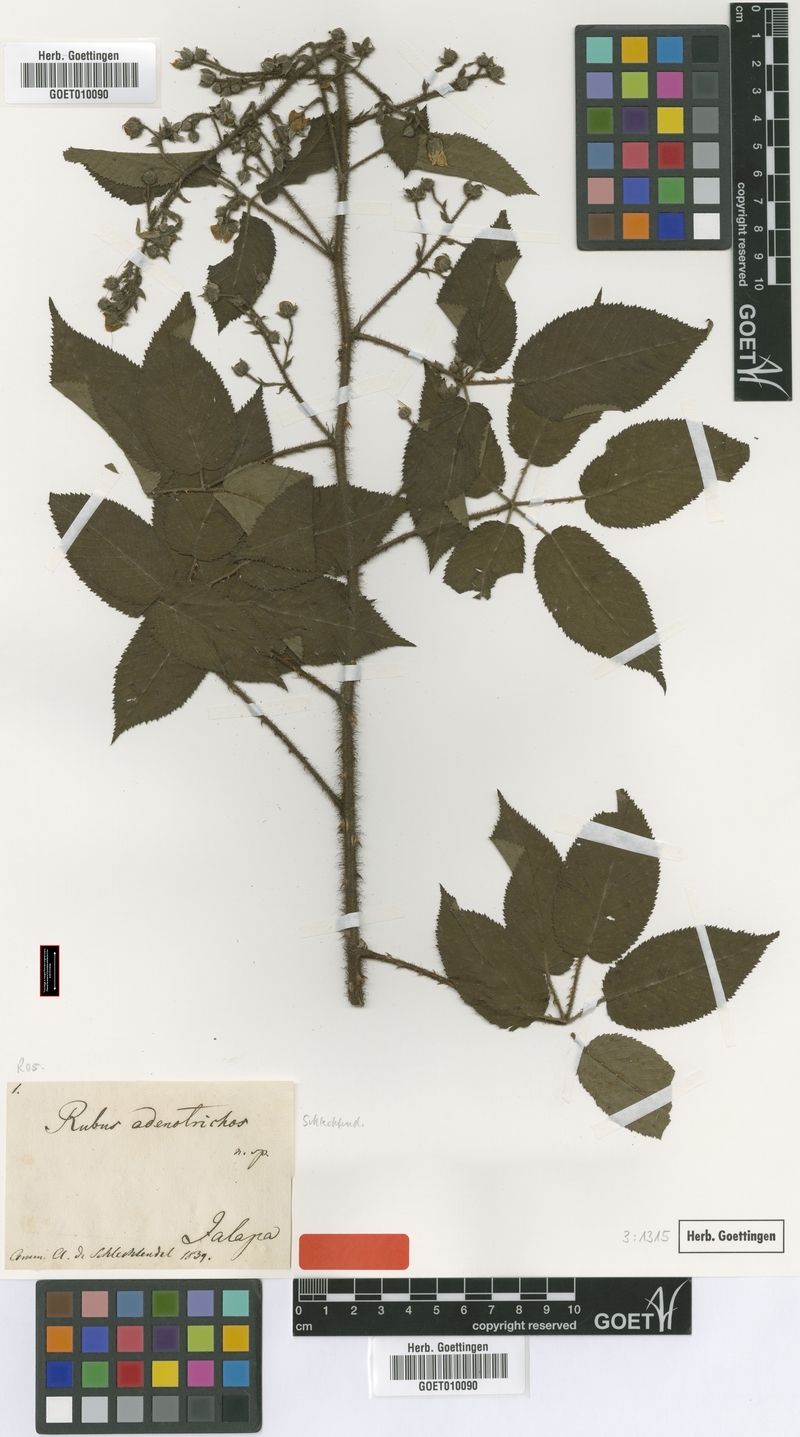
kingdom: Plantae
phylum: Tracheophyta
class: Magnoliopsida
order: Rosales
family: Rosaceae
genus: Rubus
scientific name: Rubus adenotrichos
